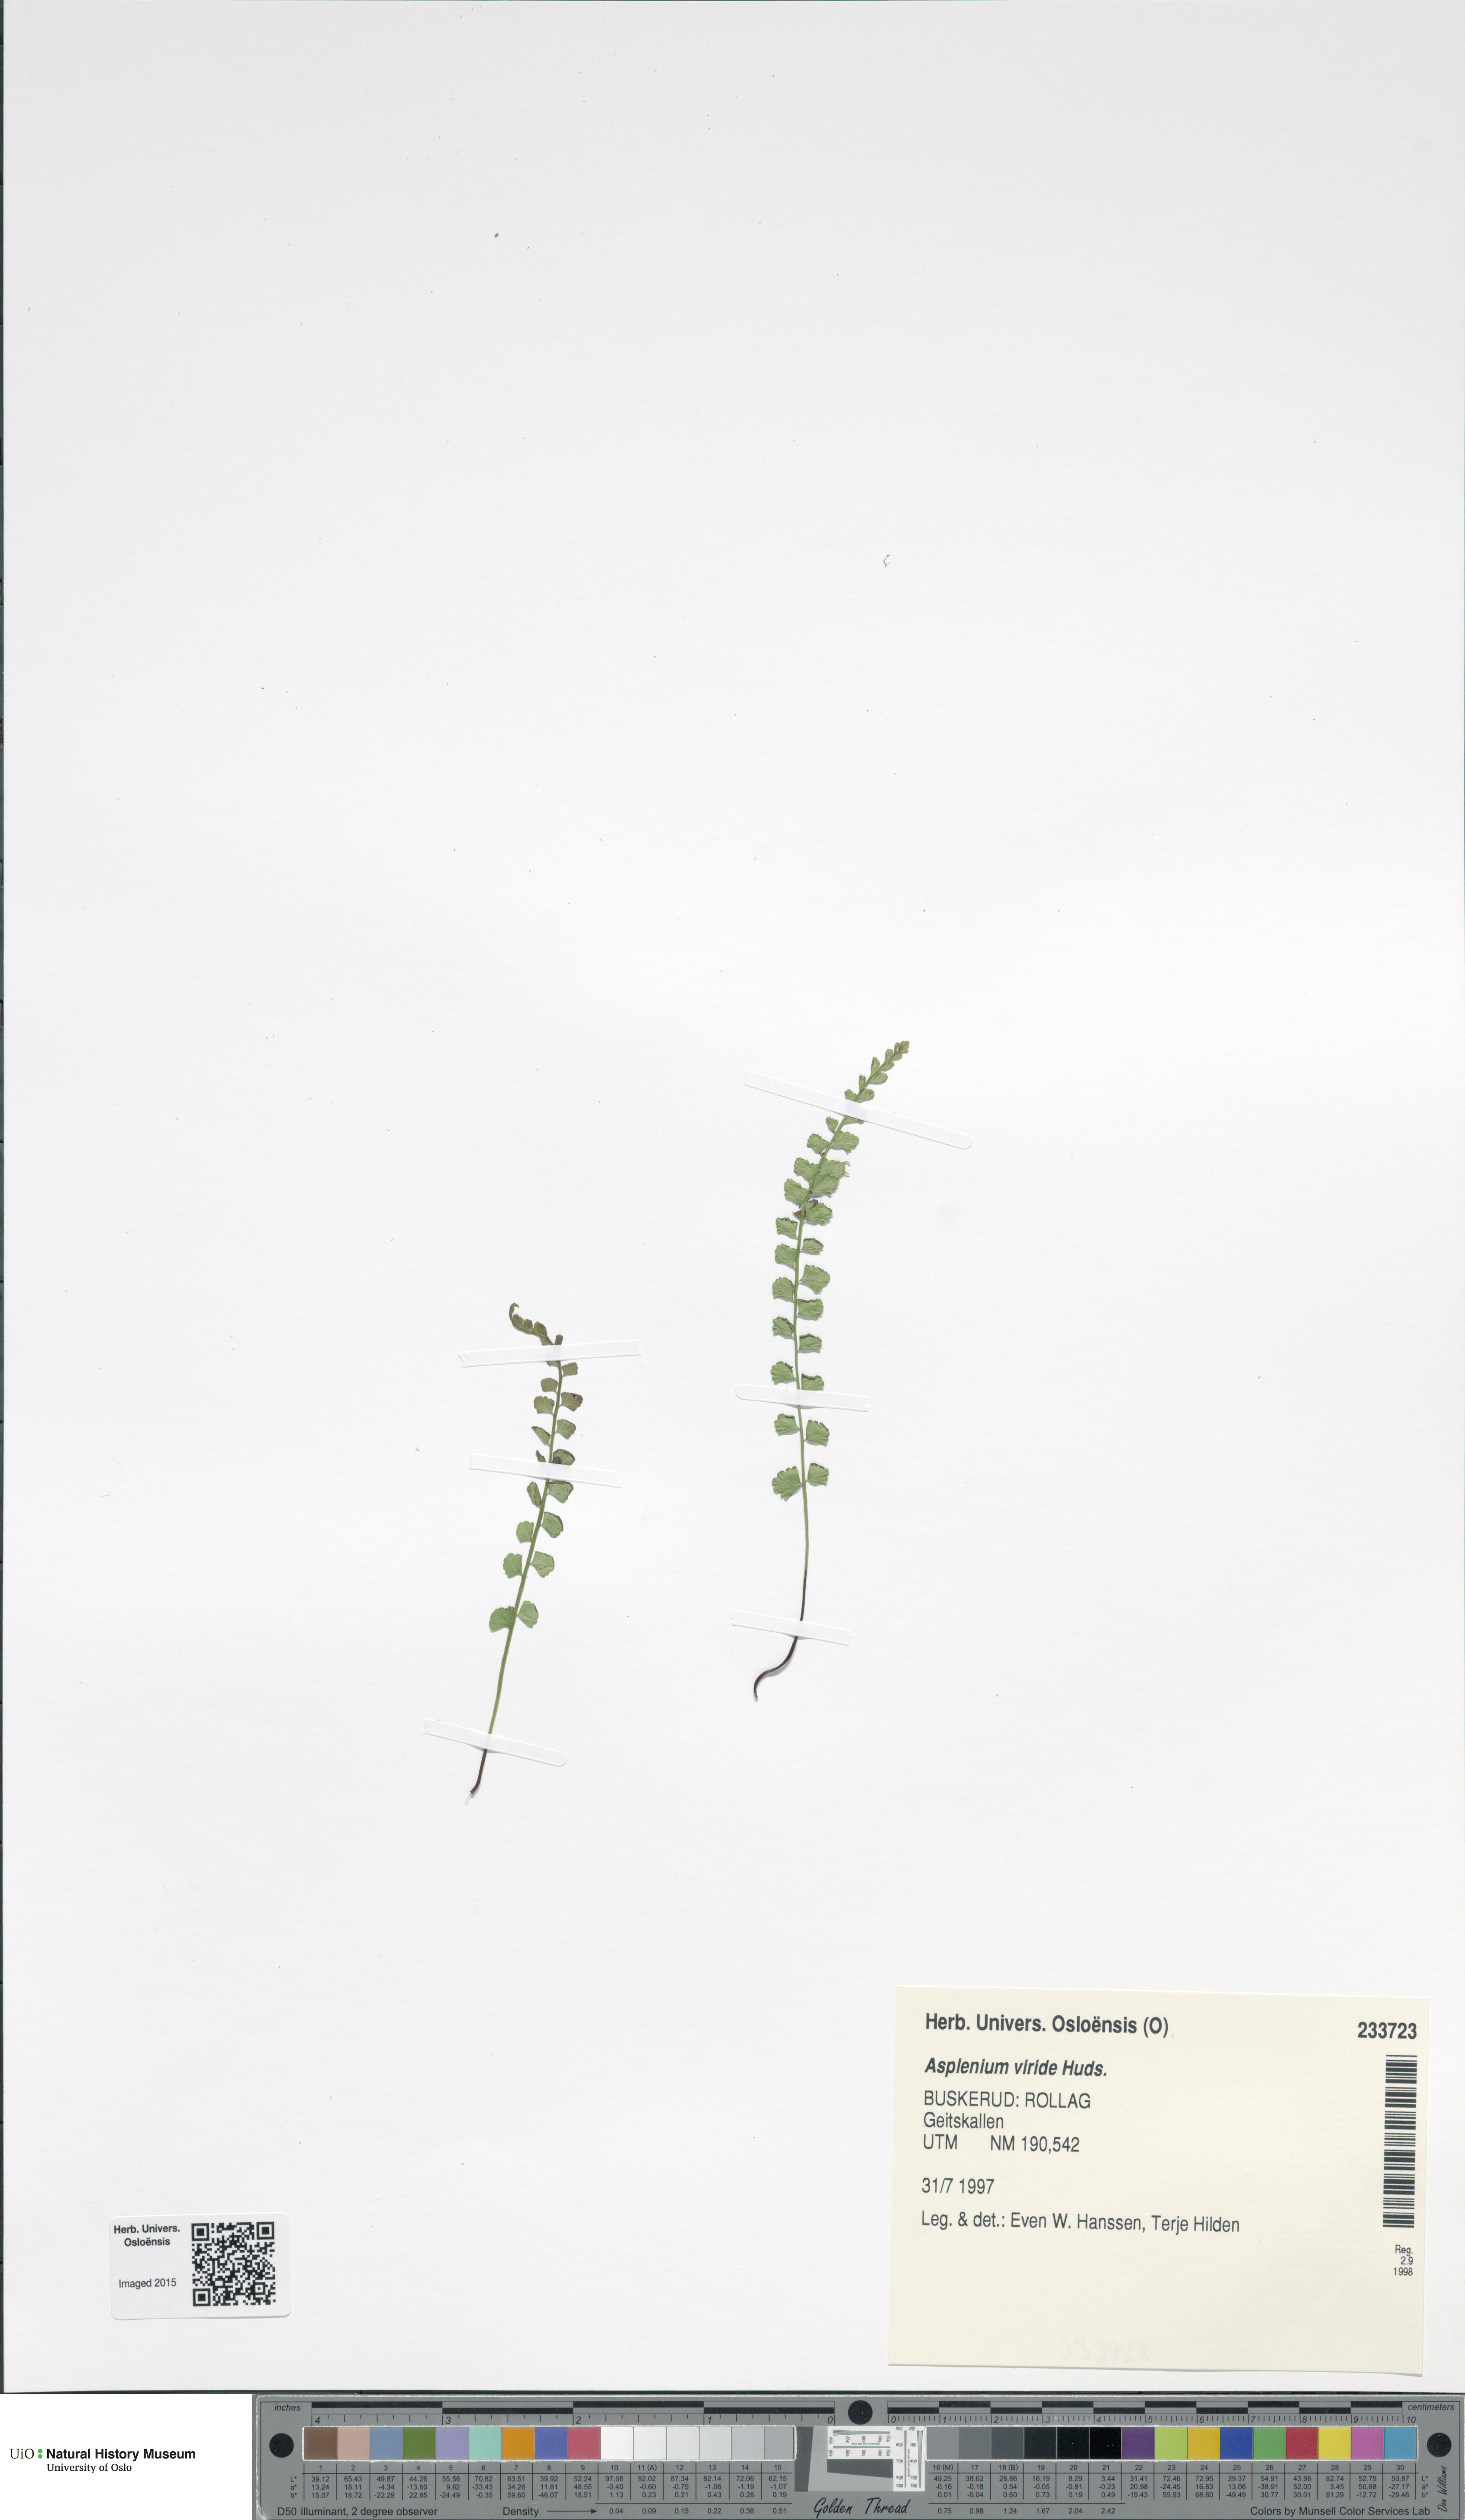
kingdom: Plantae
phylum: Tracheophyta
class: Polypodiopsida
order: Polypodiales
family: Aspleniaceae
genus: Asplenium
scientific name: Asplenium viride
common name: Green spleenwort
